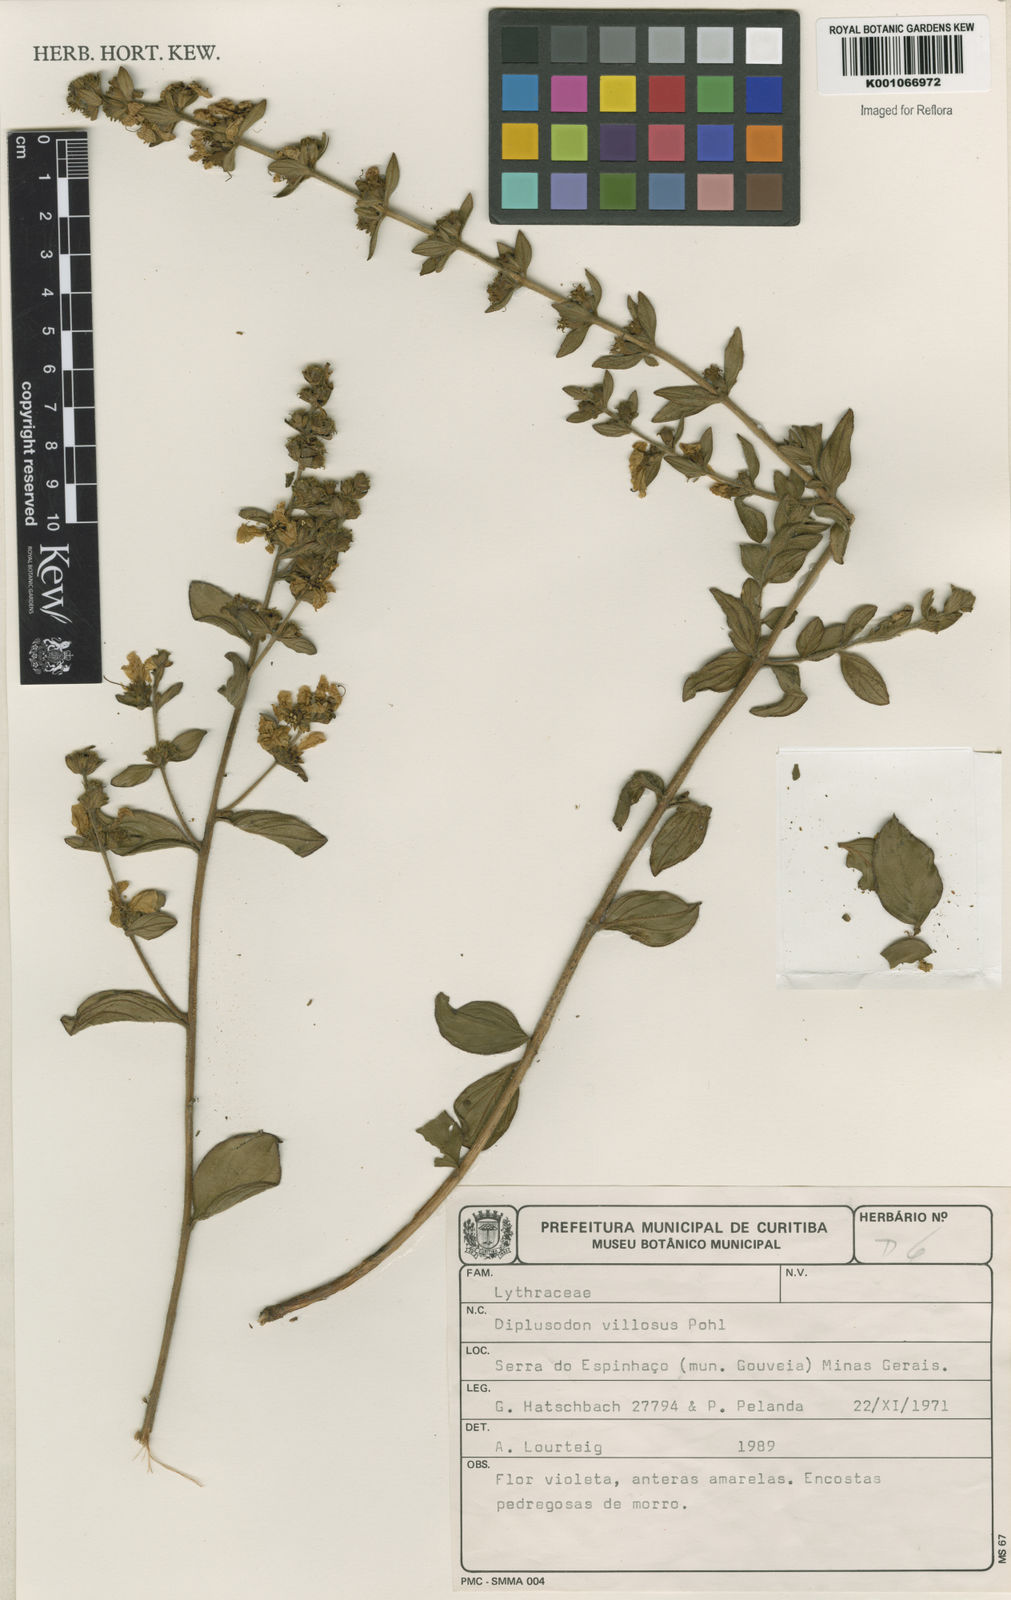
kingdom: Plantae
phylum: Tracheophyta
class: Magnoliopsida
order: Myrtales
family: Lythraceae
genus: Diplusodon
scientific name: Diplusodon villosus
